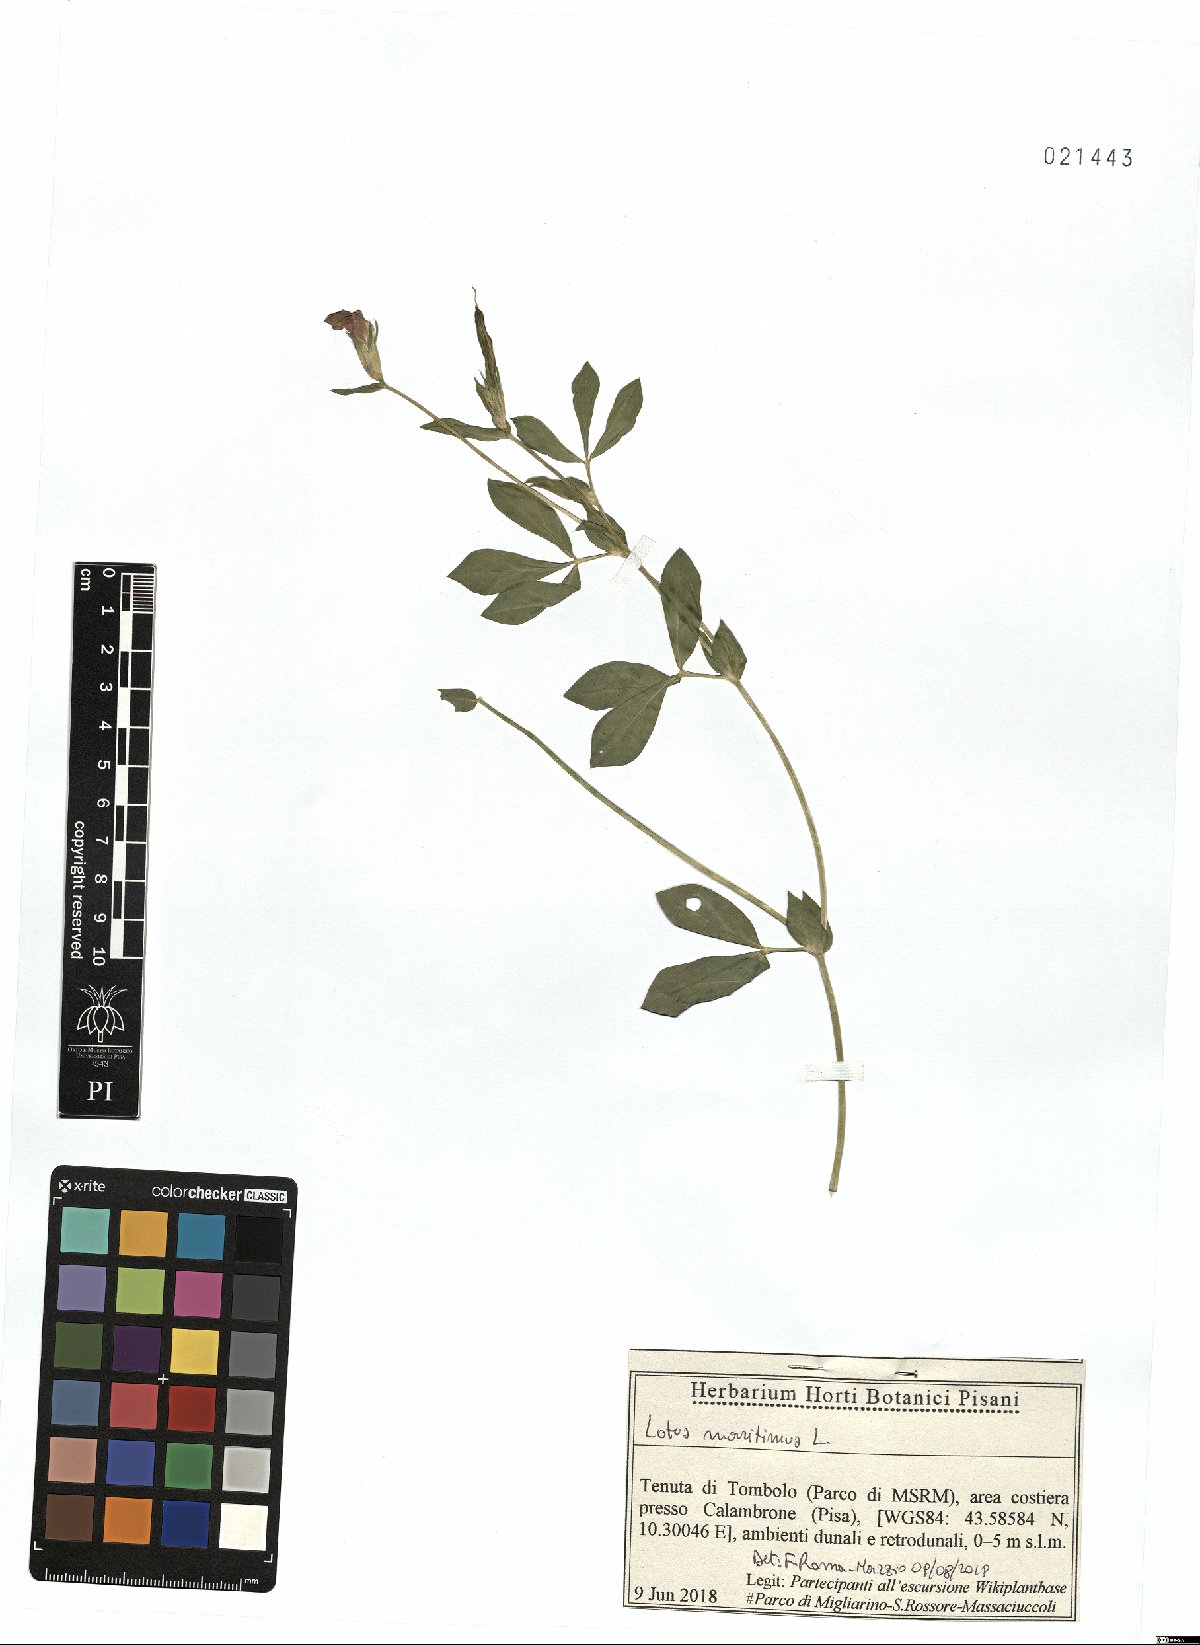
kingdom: Plantae
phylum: Tracheophyta
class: Magnoliopsida
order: Fabales
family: Fabaceae
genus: Lotus
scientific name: Lotus maritimus
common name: Dragon's-teeth
